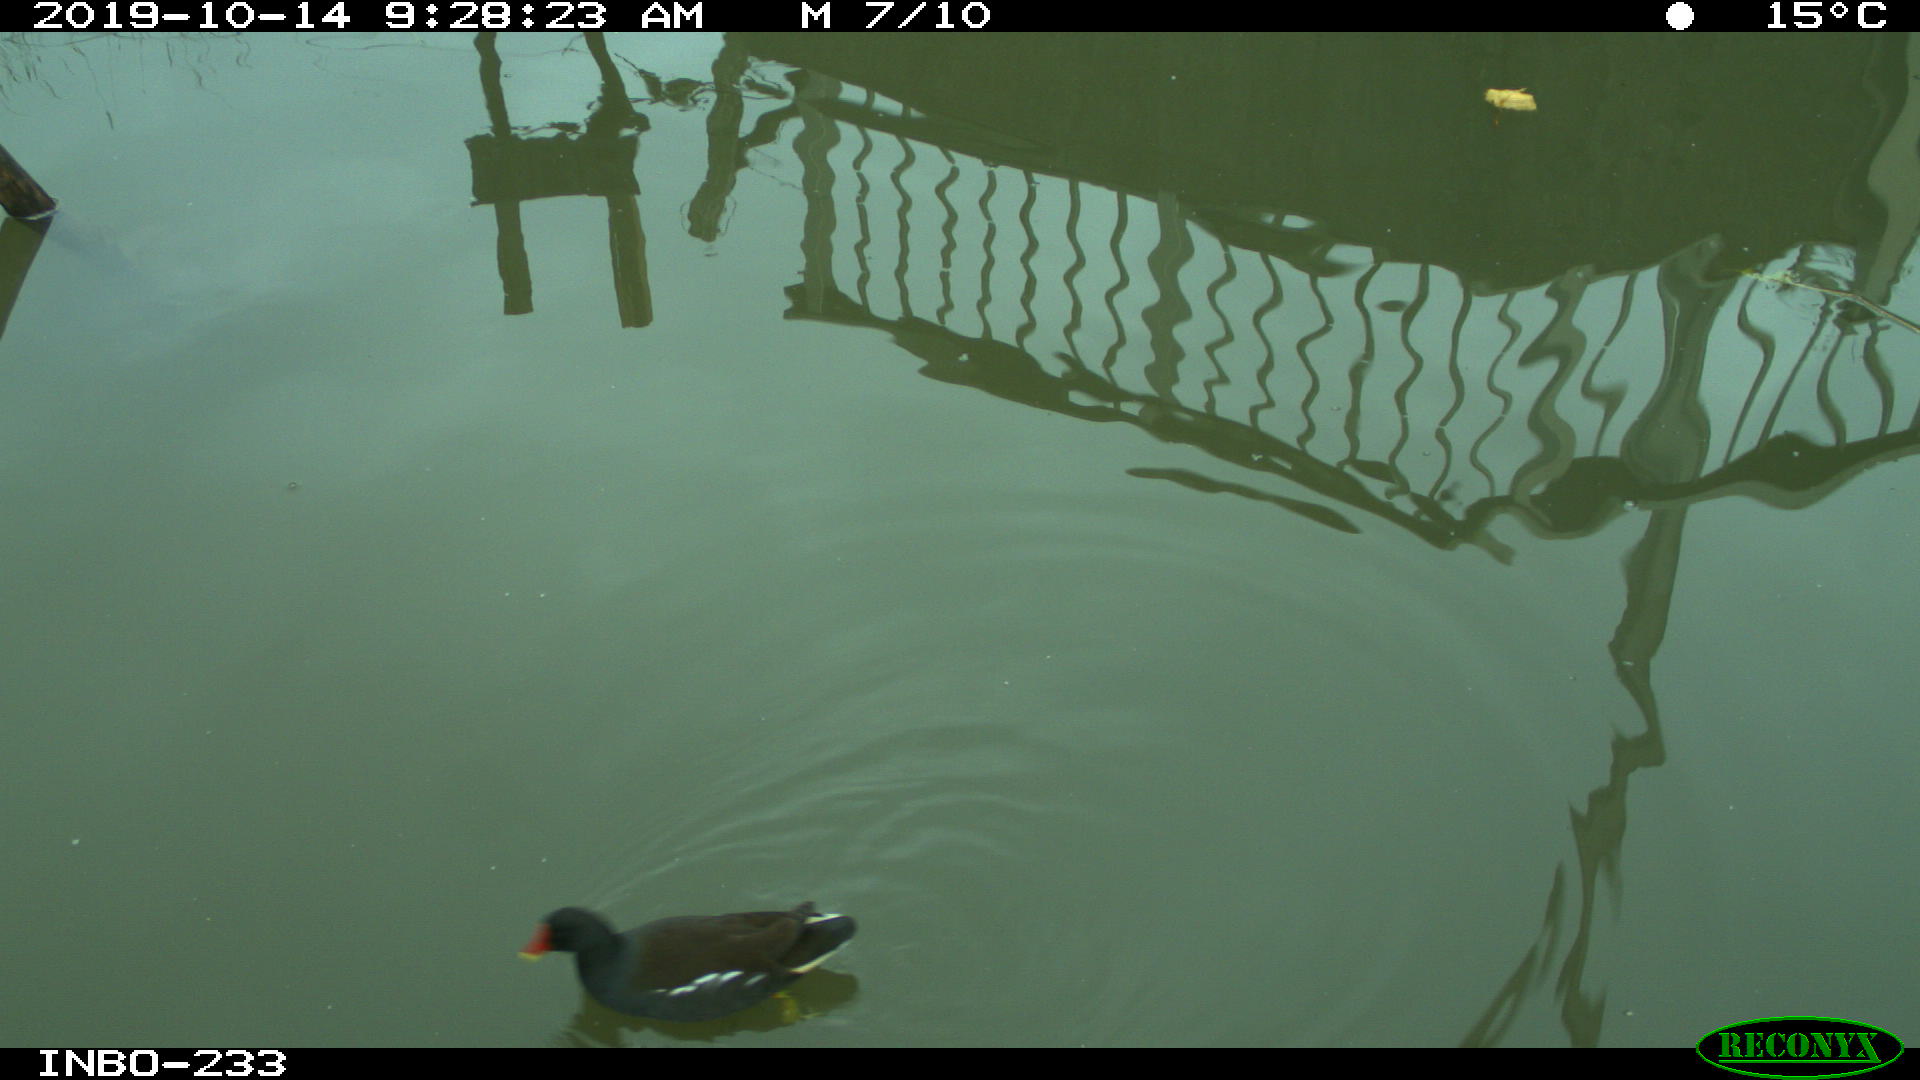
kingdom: Animalia
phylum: Chordata
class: Aves
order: Gruiformes
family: Rallidae
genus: Gallinula
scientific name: Gallinula chloropus
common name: Common moorhen
